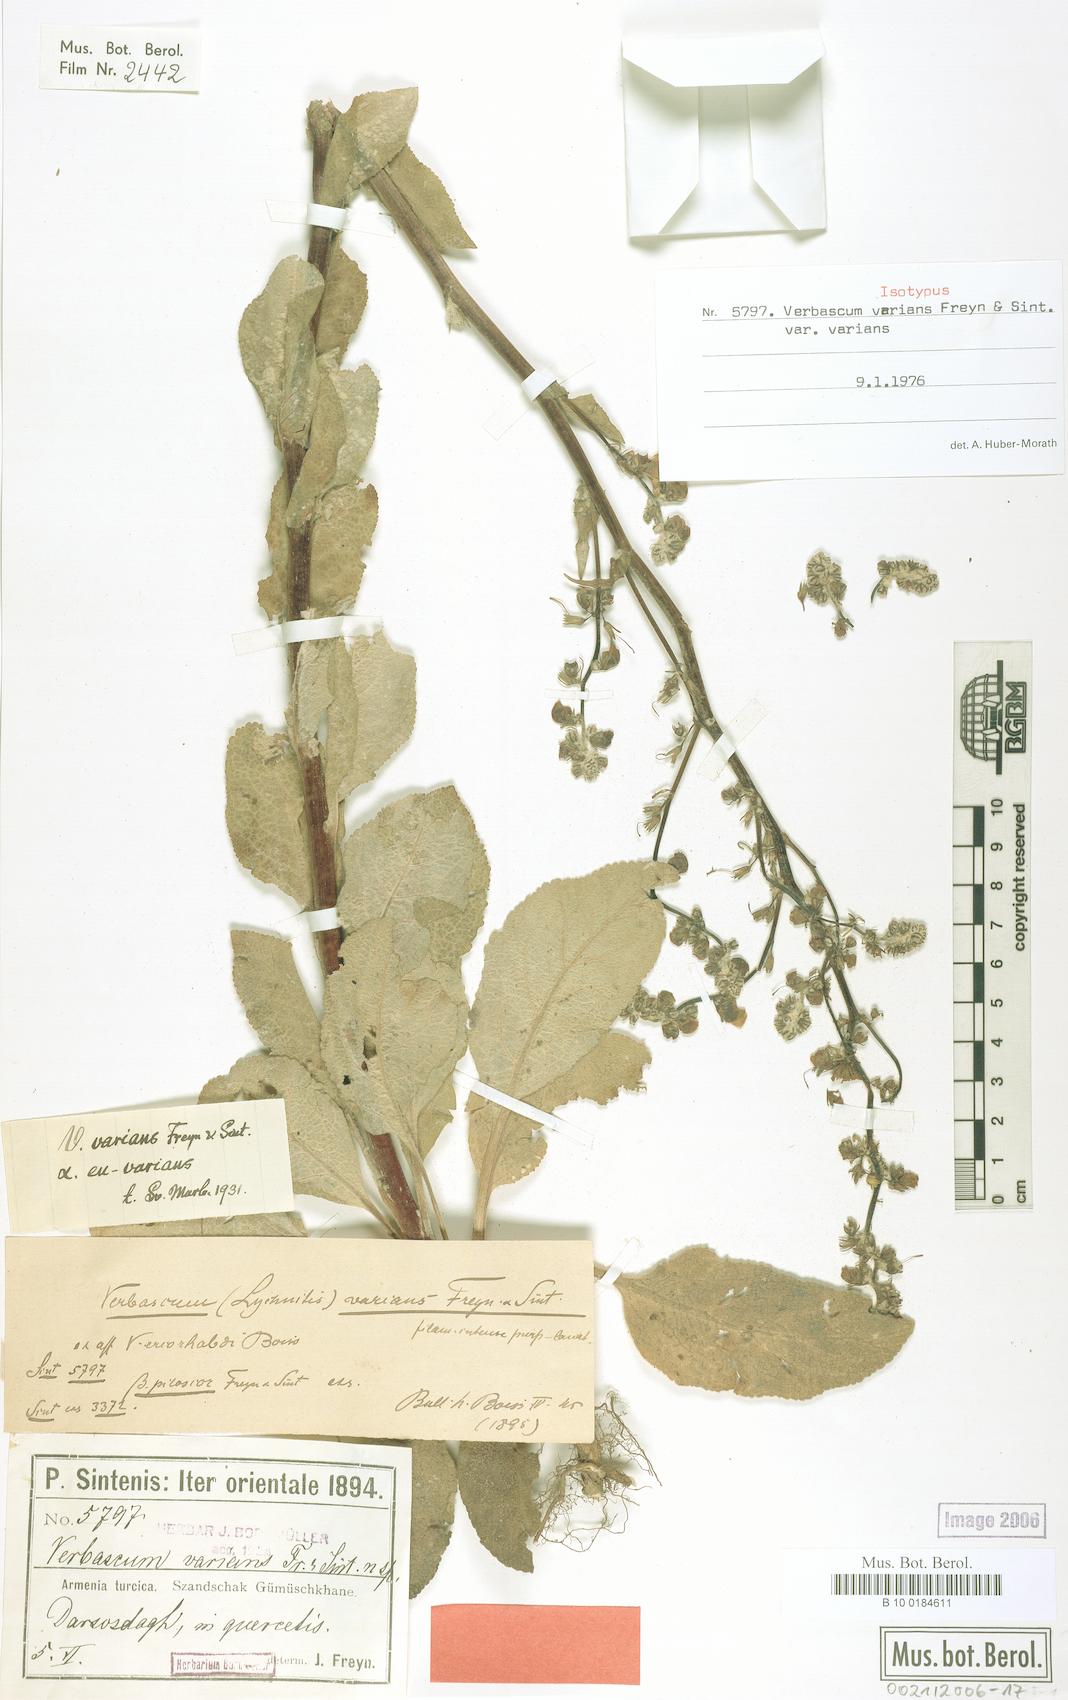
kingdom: Plantae
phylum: Tracheophyta
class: Magnoliopsida
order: Lamiales
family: Scrophulariaceae
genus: Verbascum
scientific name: Verbascum varians
